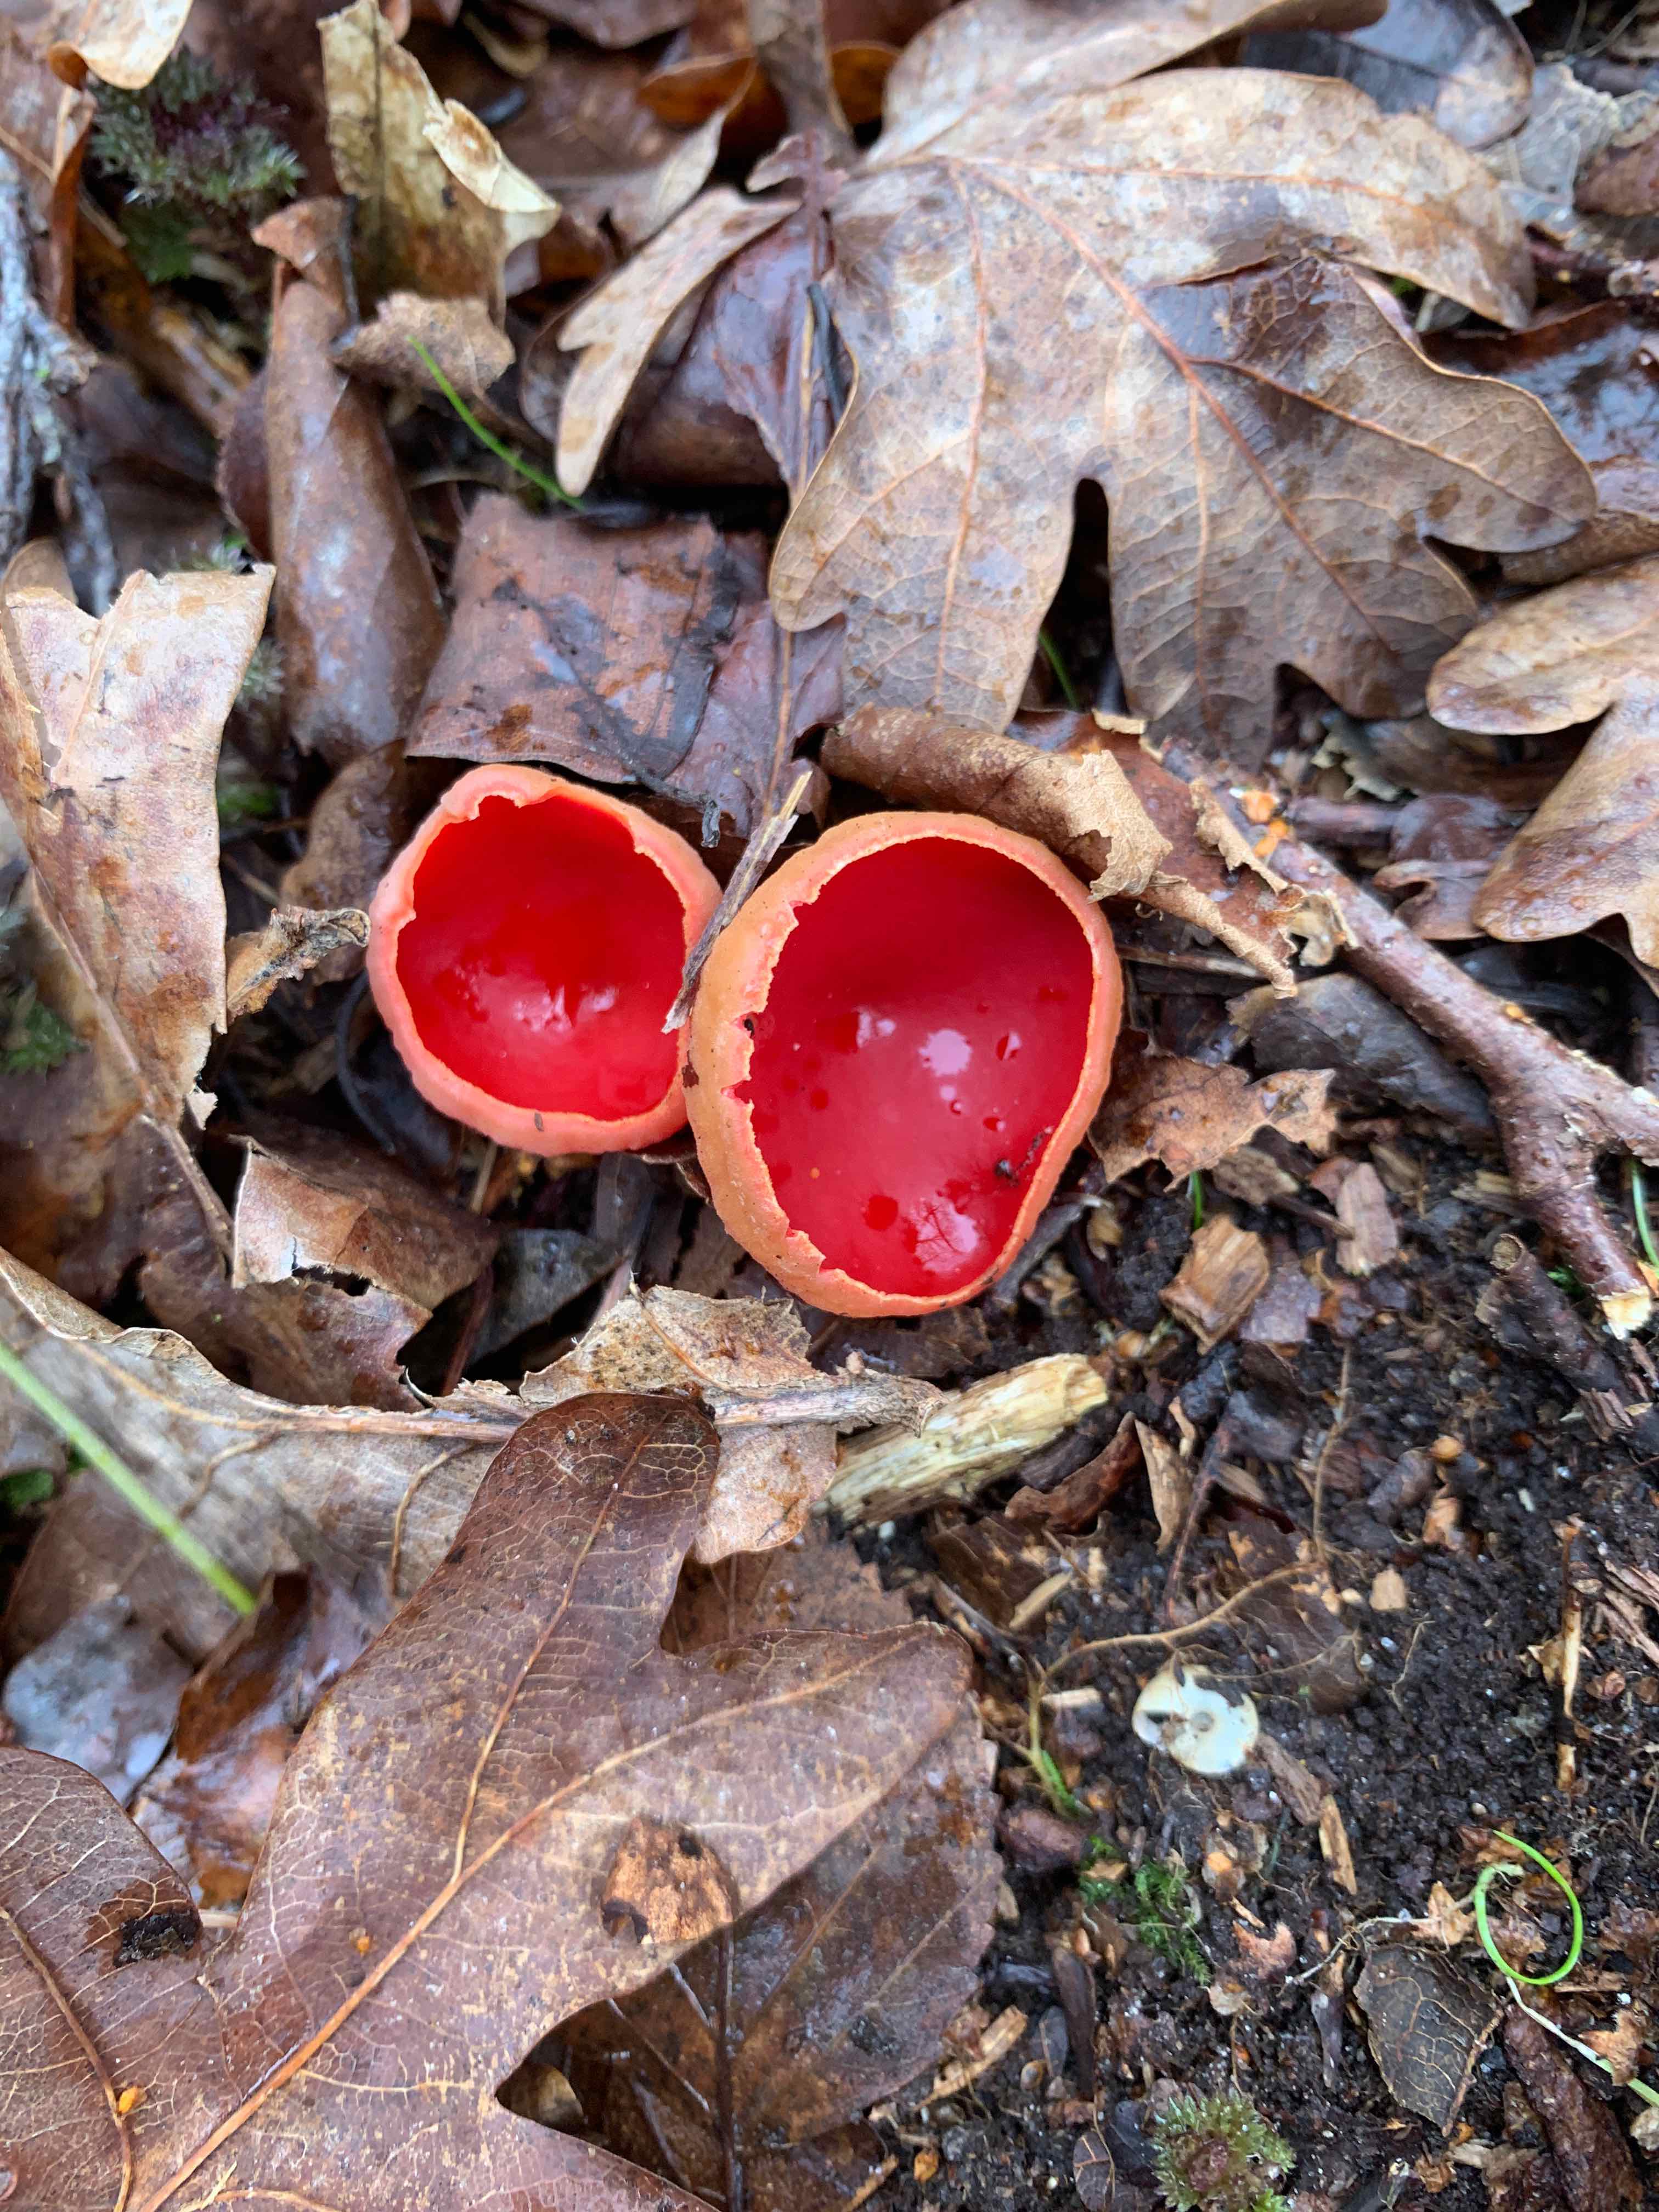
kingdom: Fungi
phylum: Ascomycota
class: Pezizomycetes
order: Pezizales
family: Sarcoscyphaceae
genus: Sarcoscypha
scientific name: Sarcoscypha austriaca
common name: krølhåret pragtbæger
